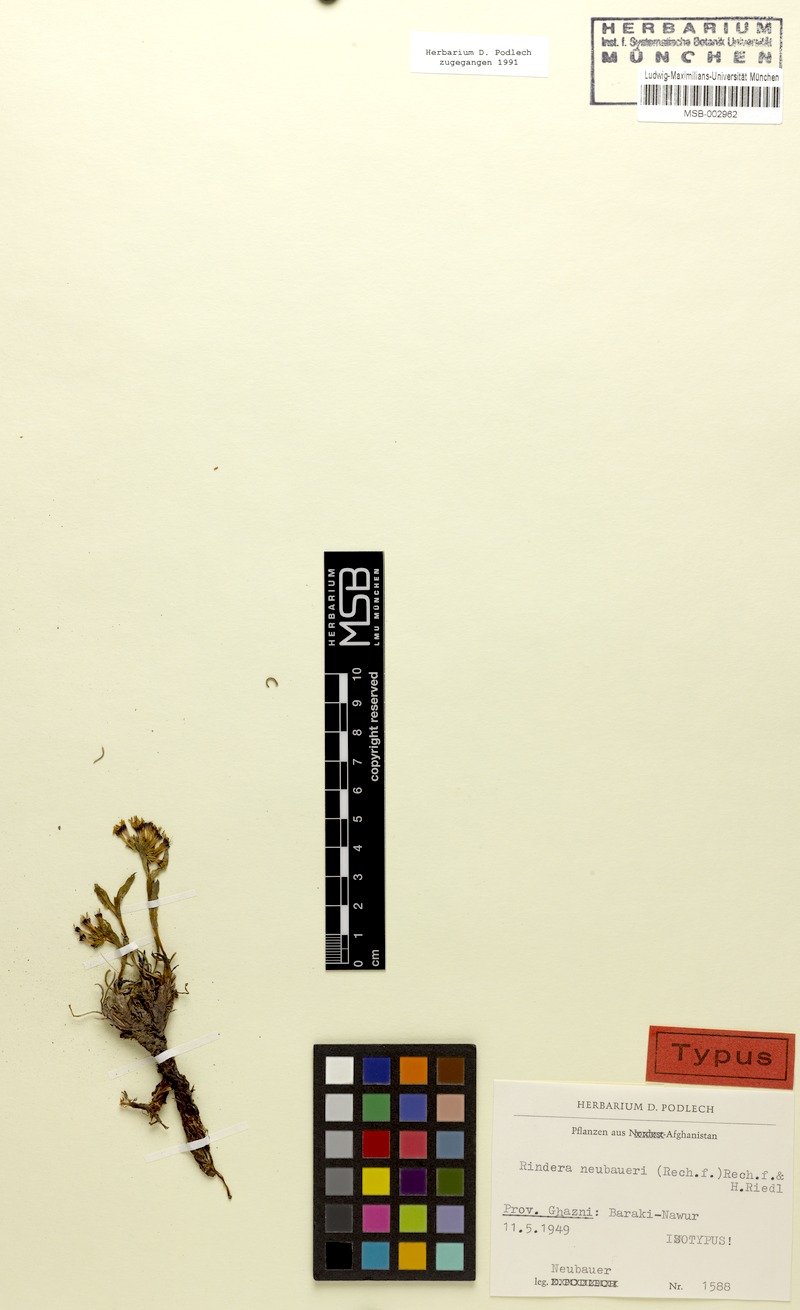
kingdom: Plantae
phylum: Tracheophyta
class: Magnoliopsida
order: Boraginales
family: Boraginaceae
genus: Rindera
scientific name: Rindera neubaueri
